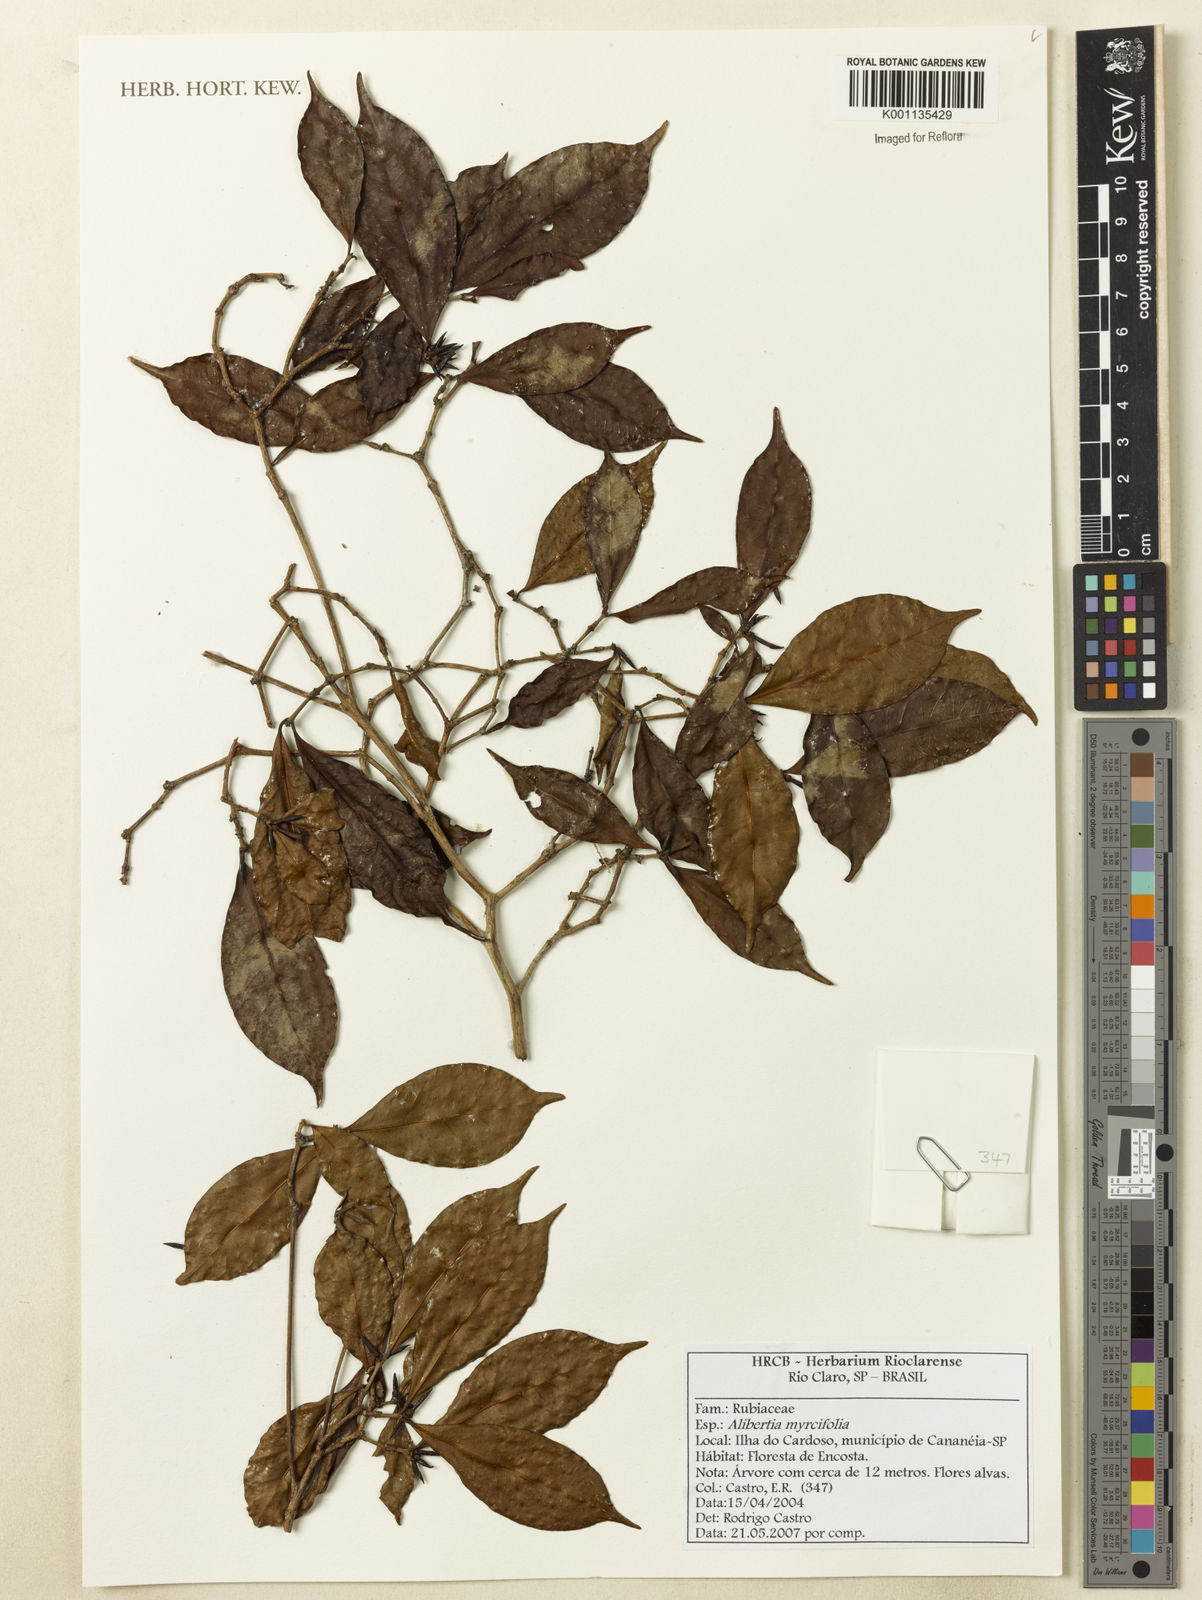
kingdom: Plantae
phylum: Tracheophyta
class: Magnoliopsida
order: Gentianales
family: Rubiaceae
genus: Cordiera
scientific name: Cordiera myrciifolia
